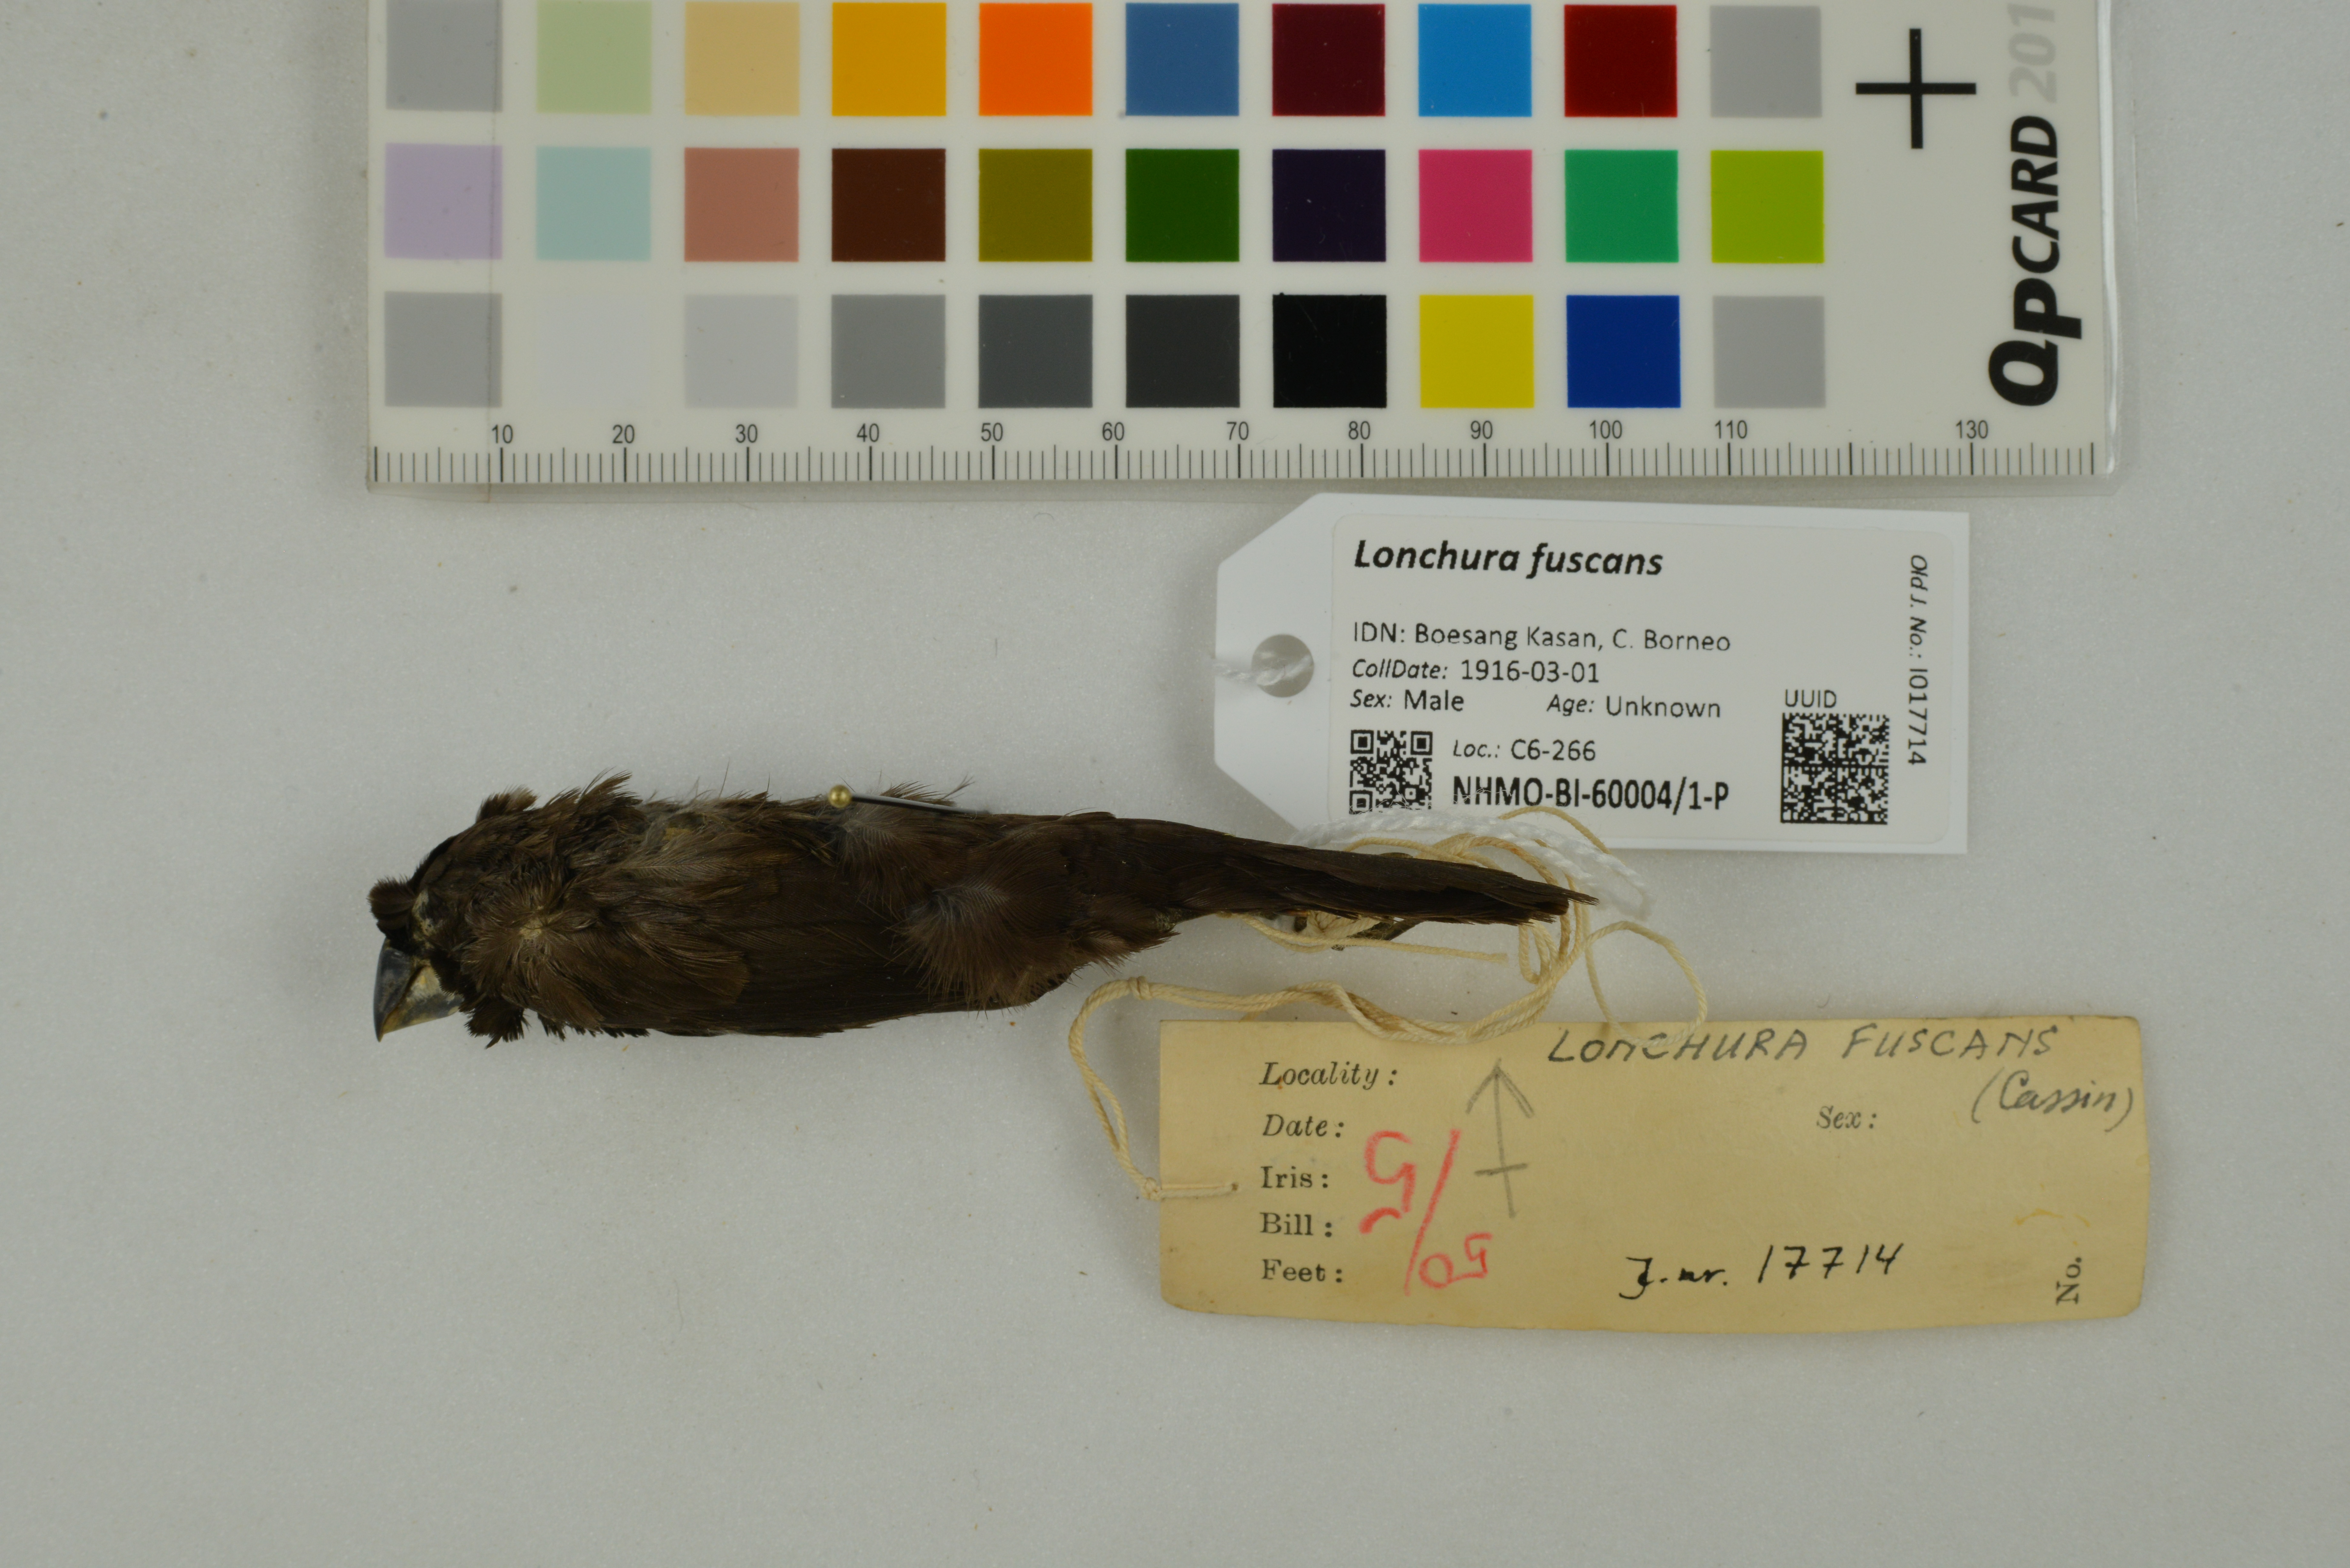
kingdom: Animalia
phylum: Chordata
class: Aves
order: Passeriformes
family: Estrildidae
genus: Lonchura
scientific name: Lonchura fuscans
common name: Dusky munia
